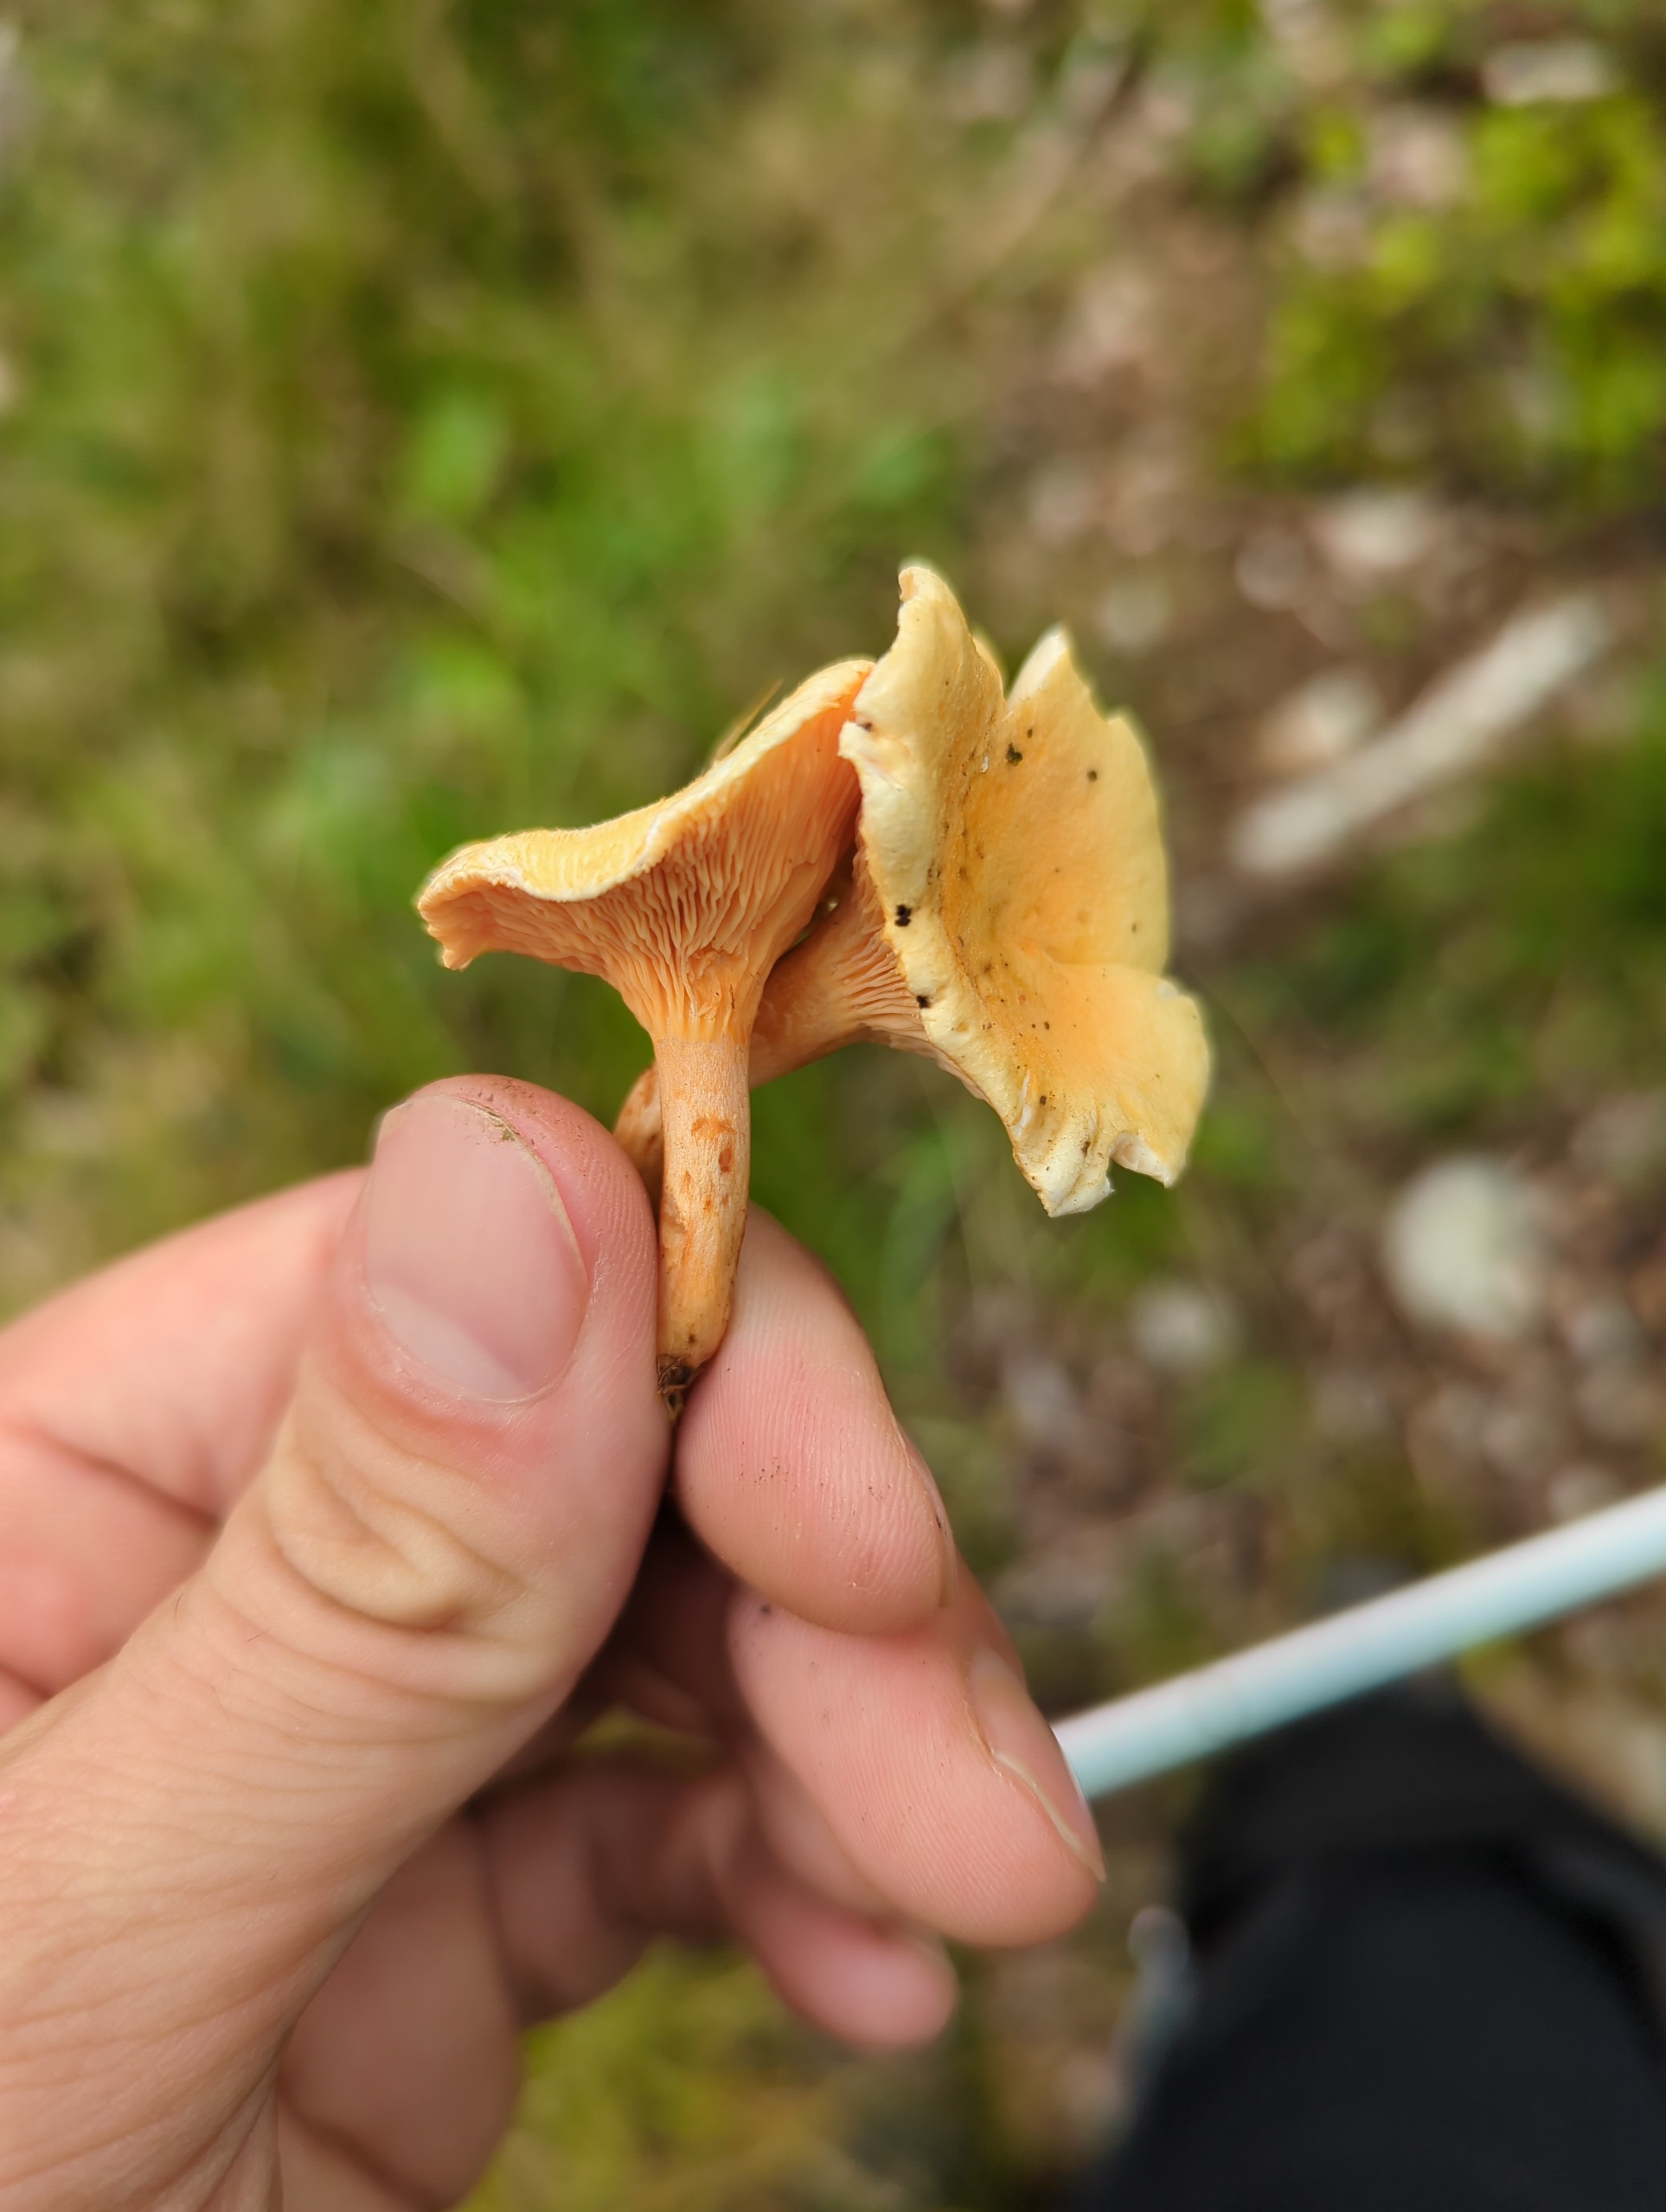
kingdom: Fungi
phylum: Basidiomycota
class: Agaricomycetes
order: Boletales
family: Hygrophoropsidaceae
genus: Hygrophoropsis
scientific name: Hygrophoropsis aurantiaca
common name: almindelig orangekantarel
